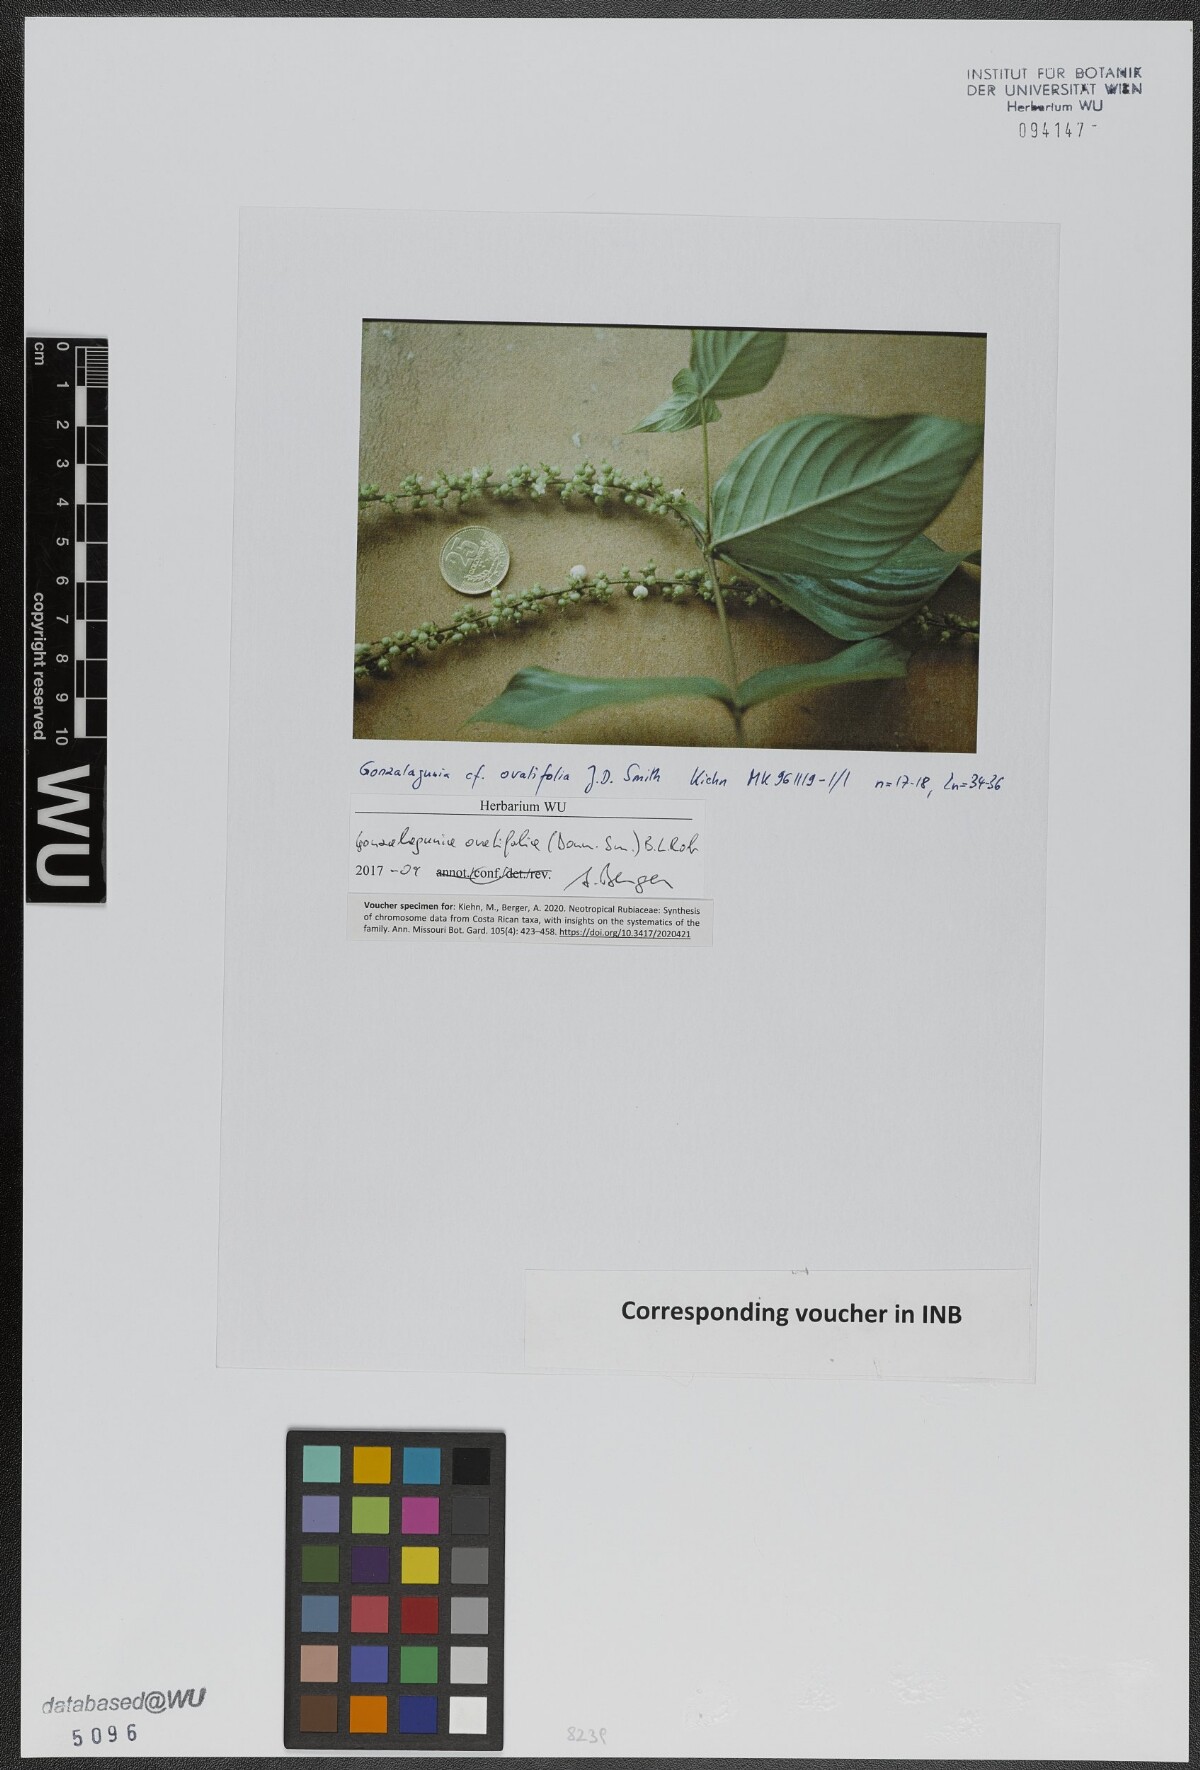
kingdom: Plantae
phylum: Tracheophyta
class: Magnoliopsida
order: Gentianales
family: Rubiaceae
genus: Gonzalagunia
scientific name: Gonzalagunia ovatifolia
